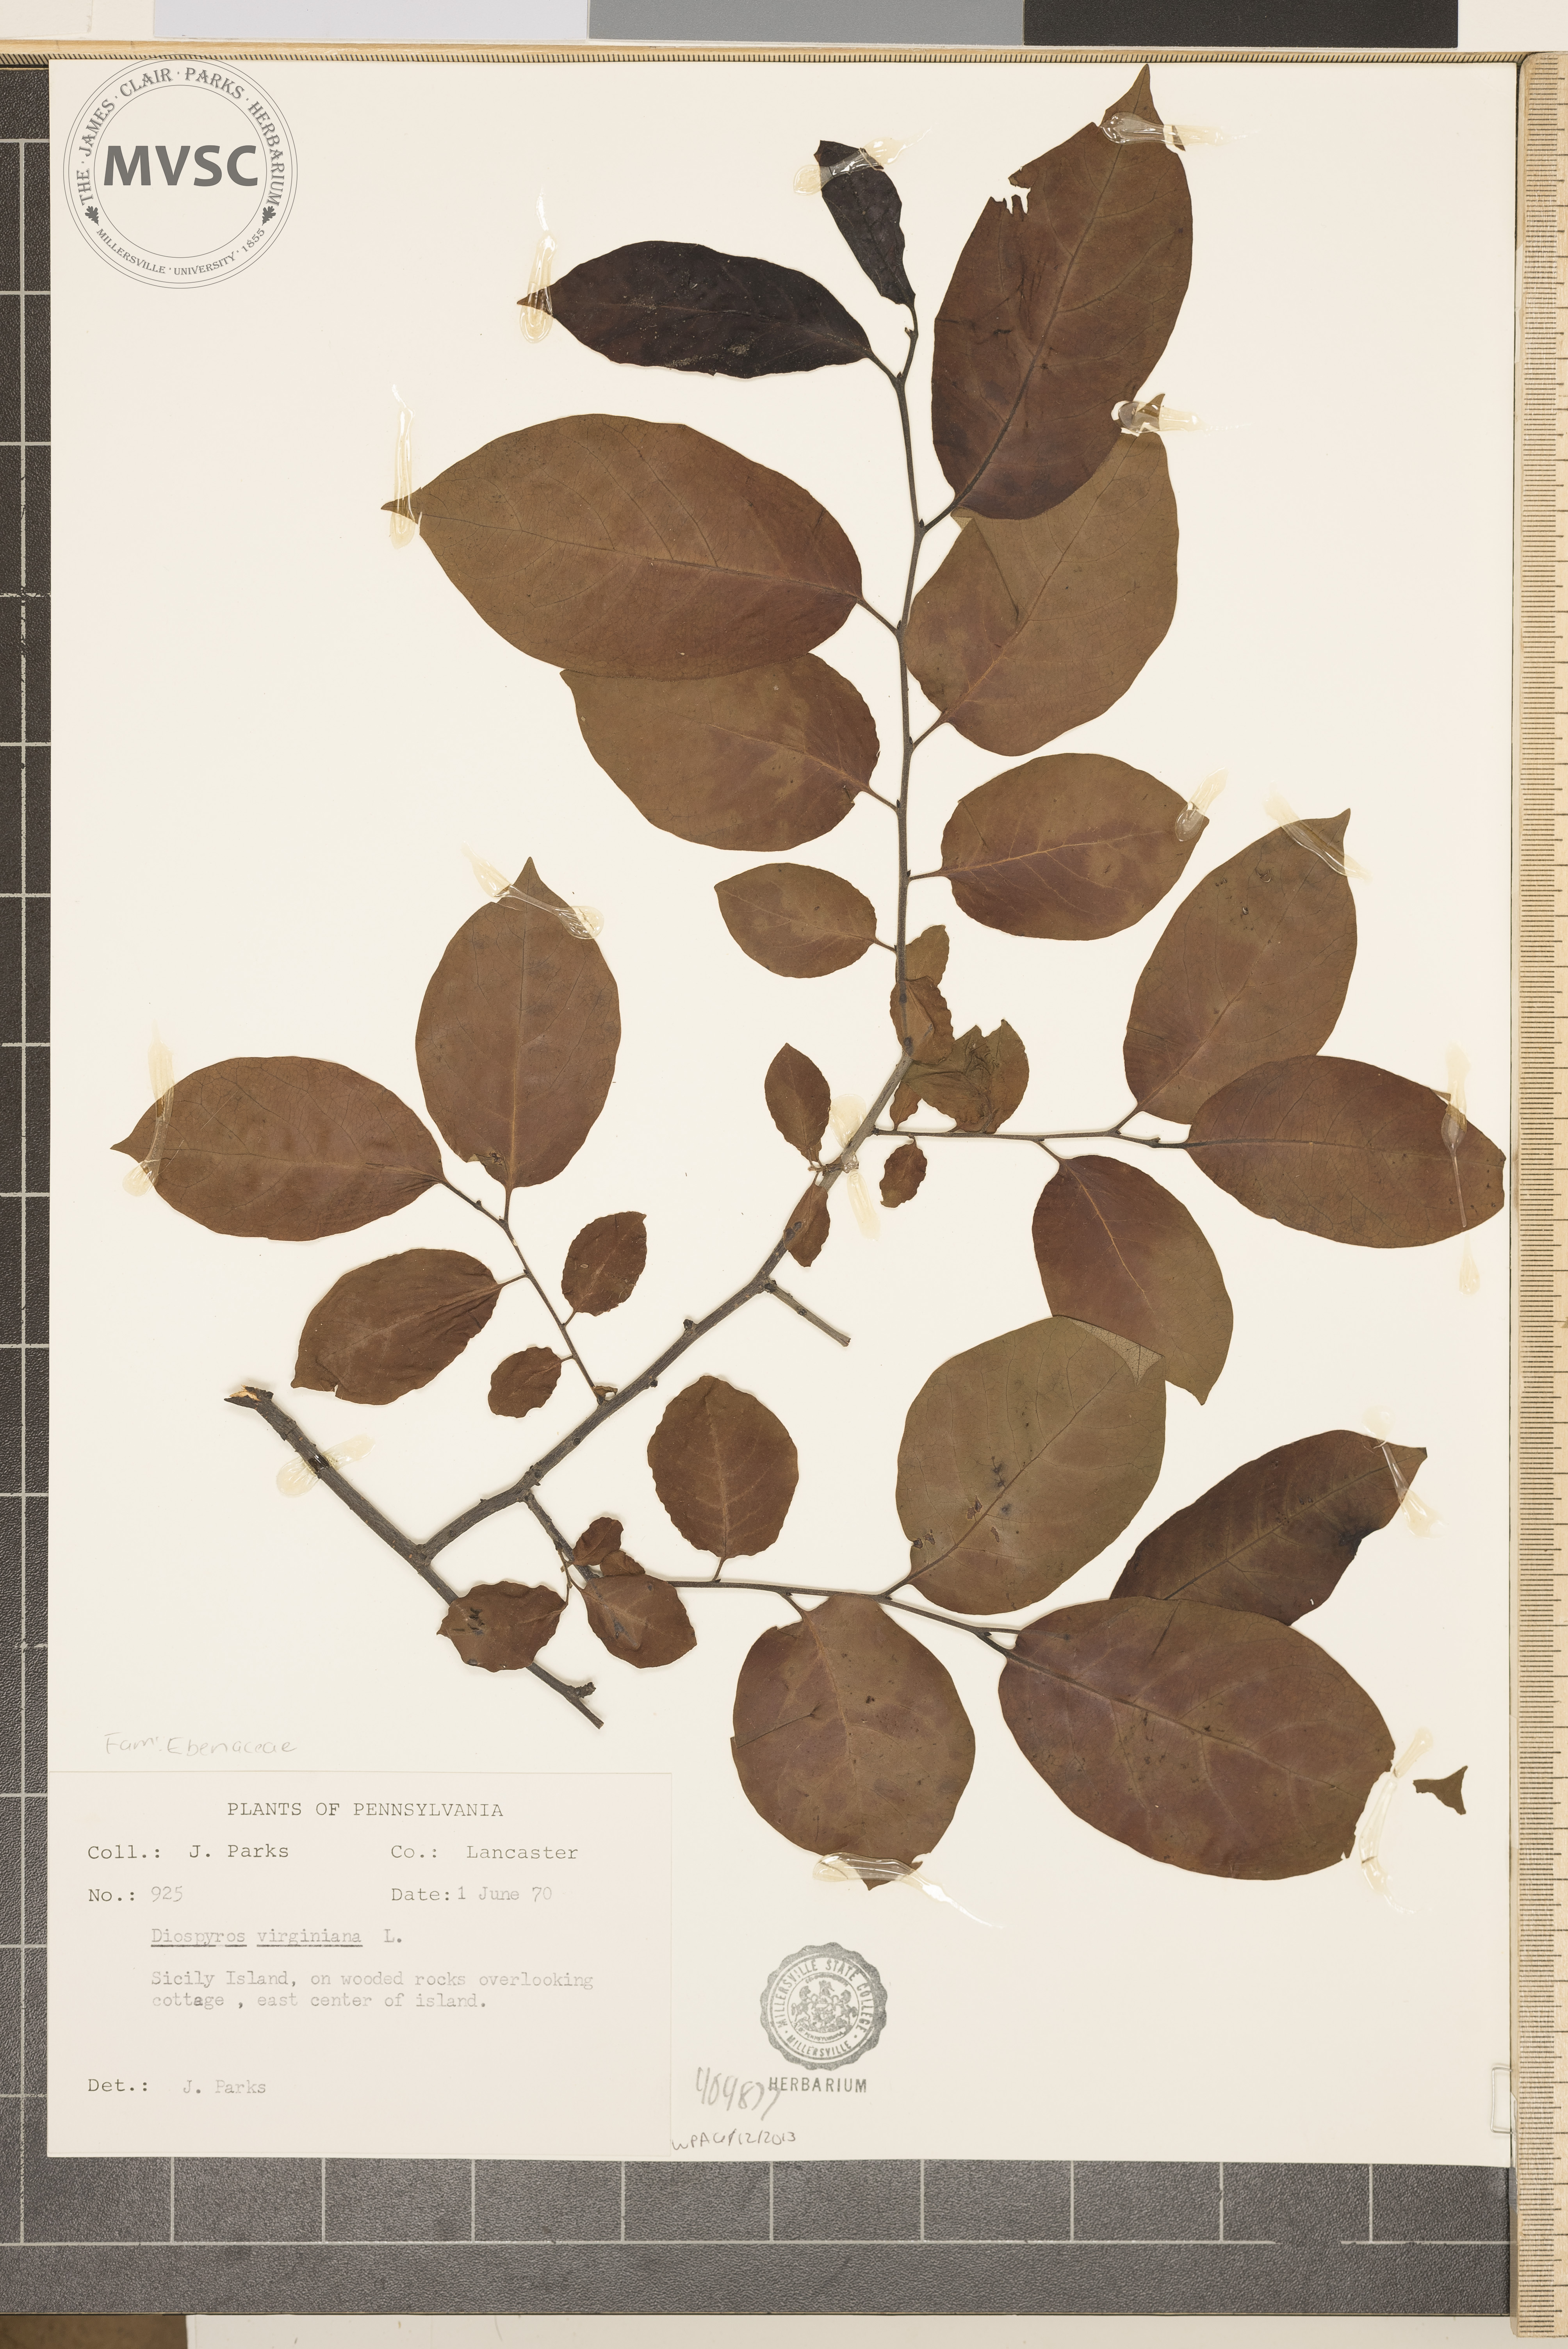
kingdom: Plantae
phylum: Tracheophyta
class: Magnoliopsida
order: Ericales
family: Ebenaceae
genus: Diospyros
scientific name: Diospyros virginiana
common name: Persimmon
